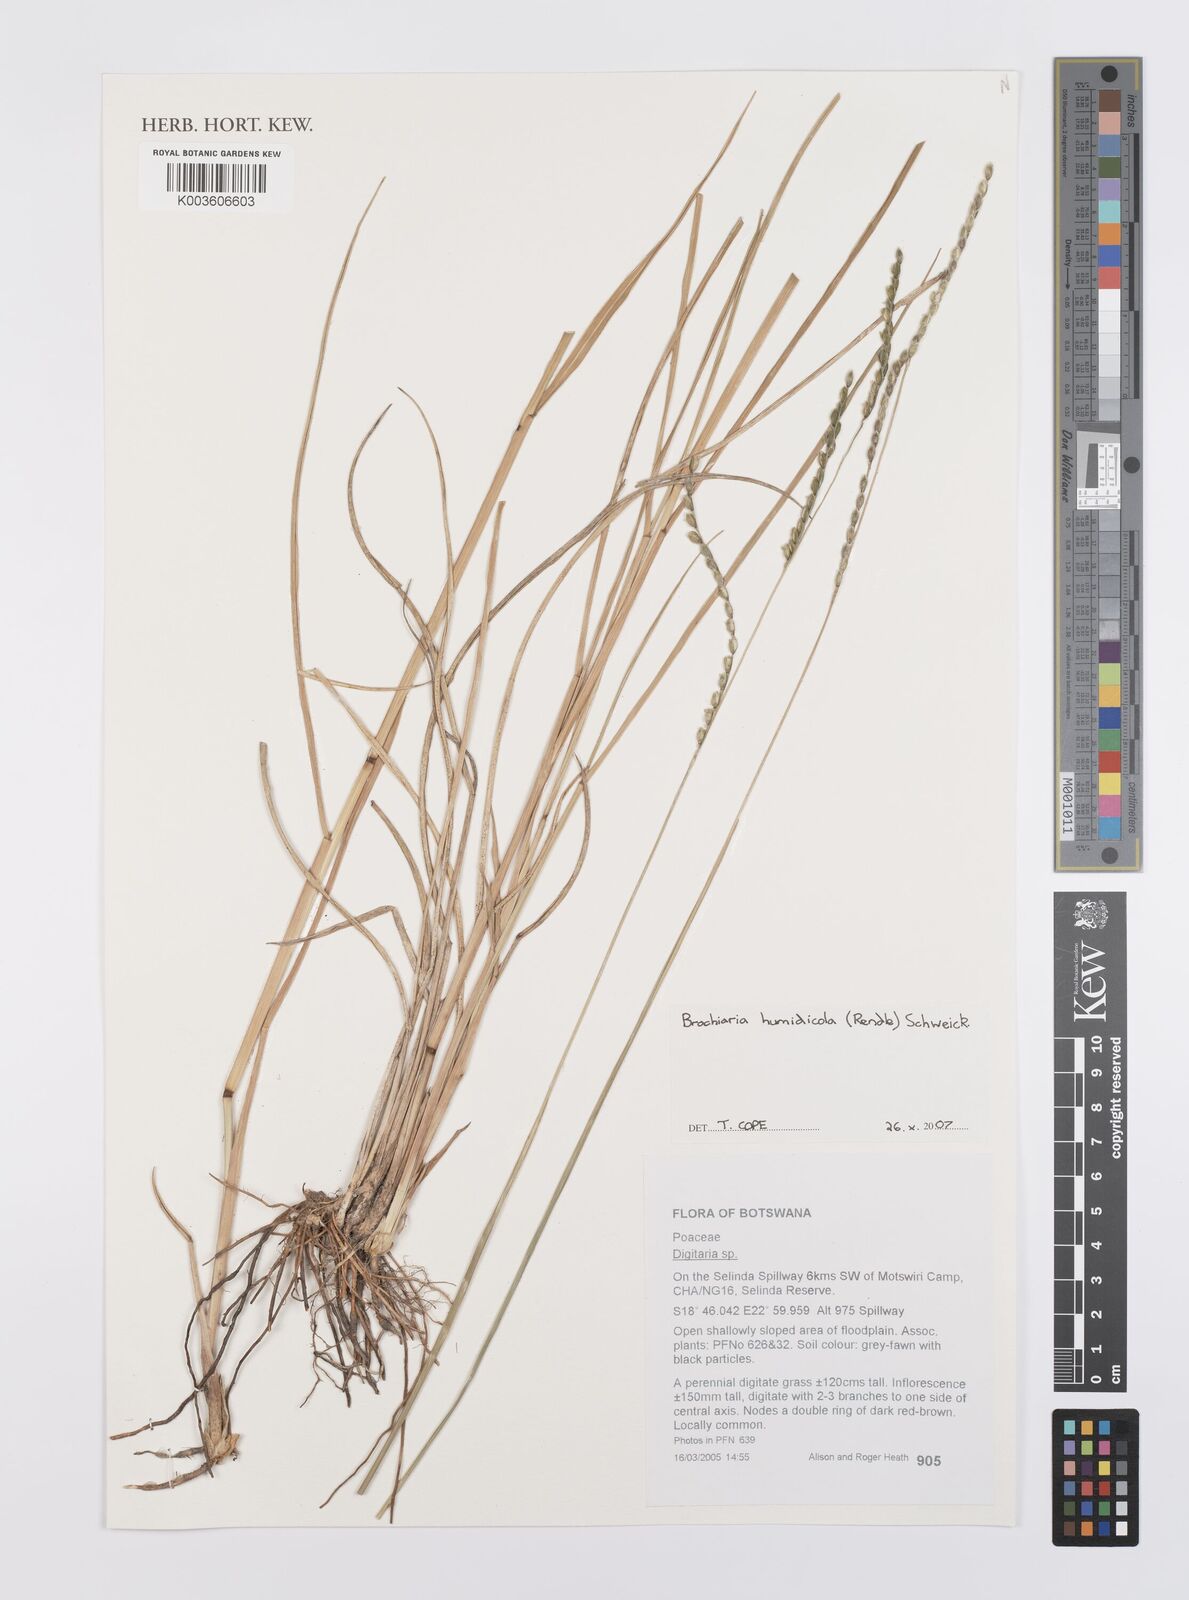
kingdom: Plantae
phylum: Tracheophyta
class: Liliopsida
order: Poales
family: Poaceae
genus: Urochloa
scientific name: Urochloa dictyoneura
